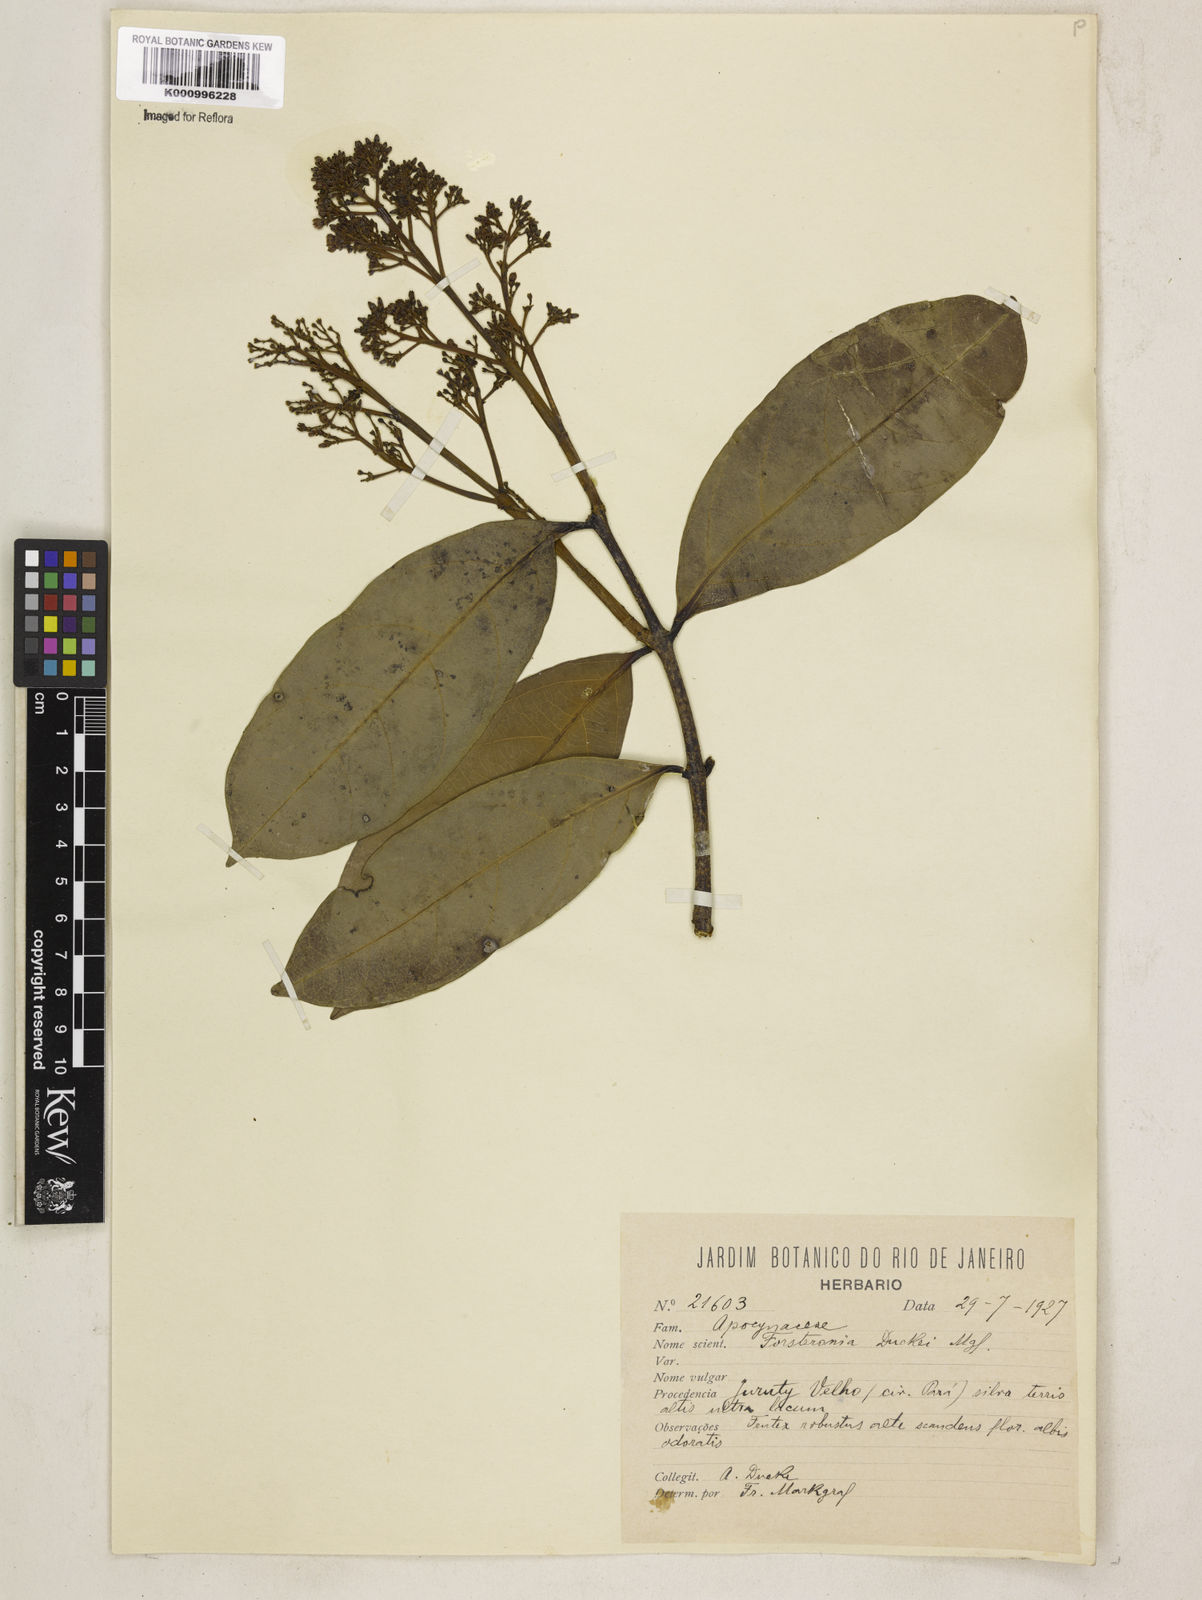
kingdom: Plantae
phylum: Tracheophyta
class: Magnoliopsida
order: Gentianales
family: Apocynaceae
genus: Forsteronia
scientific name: Forsteronia
